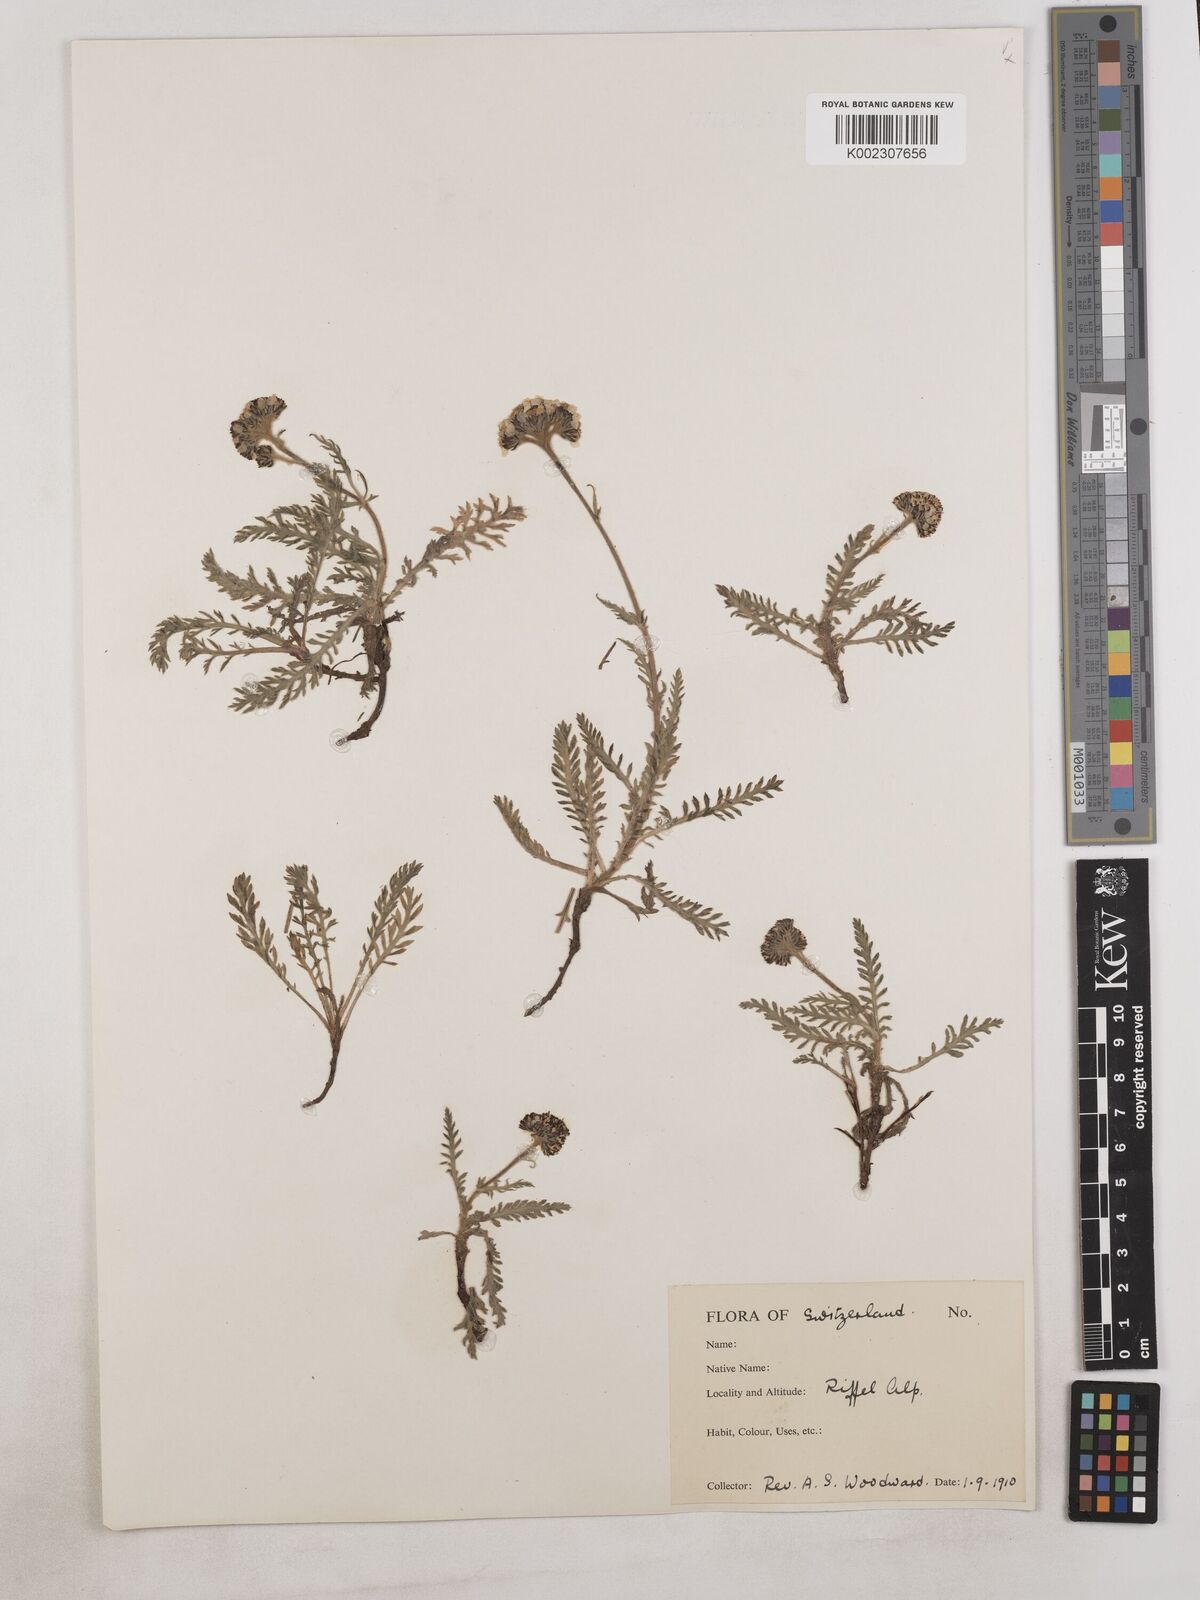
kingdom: Plantae
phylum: Tracheophyta
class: Magnoliopsida
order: Asterales
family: Asteraceae
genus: Achillea
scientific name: Achillea
